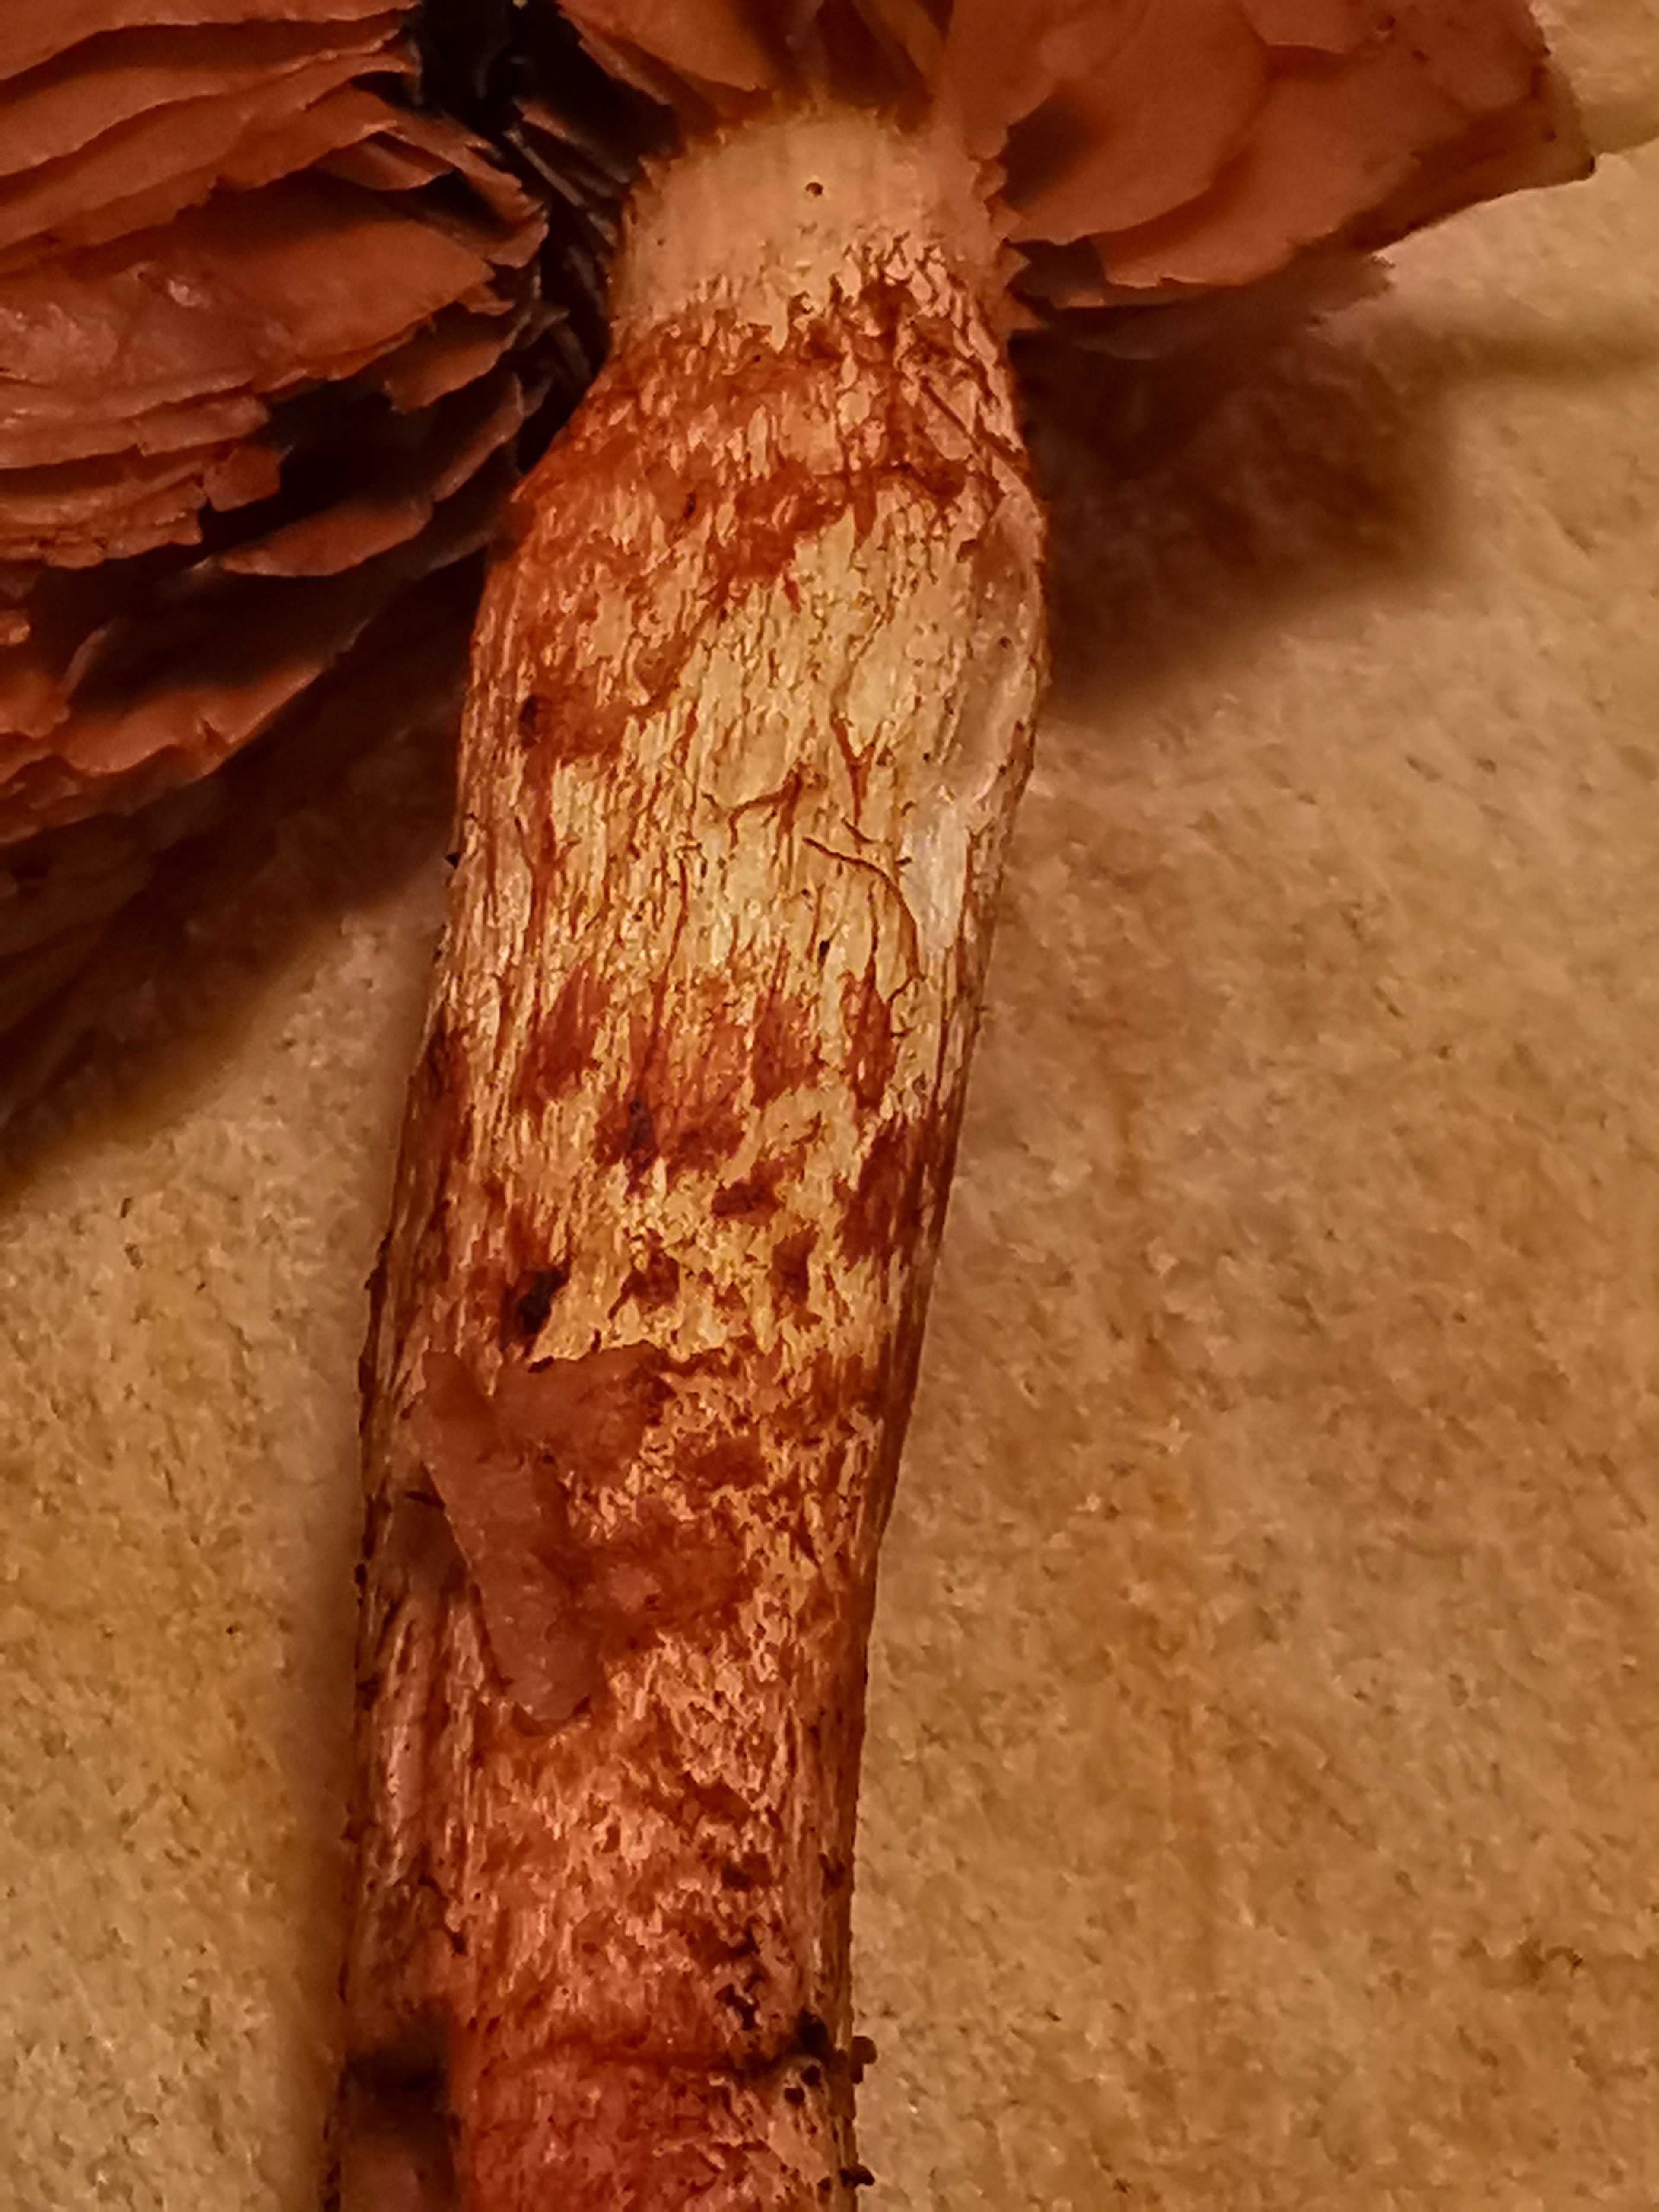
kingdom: Fungi
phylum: Basidiomycota
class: Agaricomycetes
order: Agaricales
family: Cortinariaceae
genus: Cortinarius
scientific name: Cortinarius bolaris
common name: cinnoberskællet slørhat
